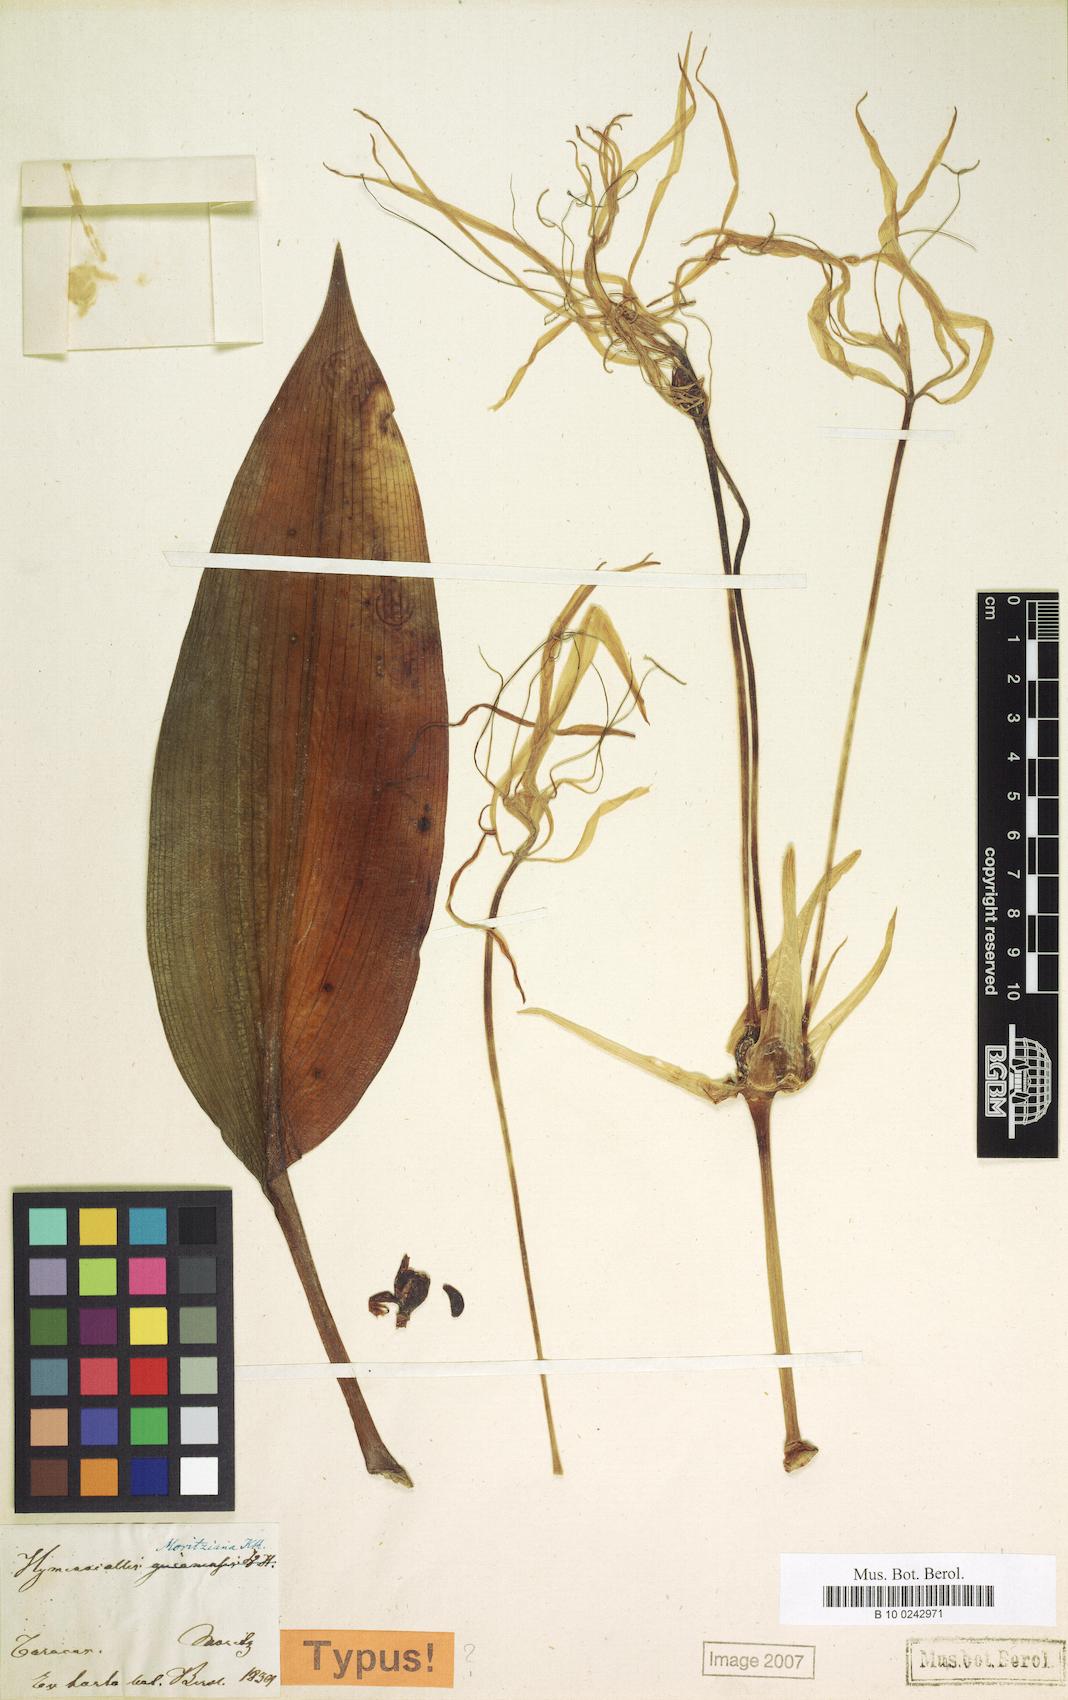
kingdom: Plantae
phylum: Tracheophyta
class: Liliopsida
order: Asparagales
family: Amaryllidaceae
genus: Hymenocallis
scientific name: Hymenocallis tubiflora
